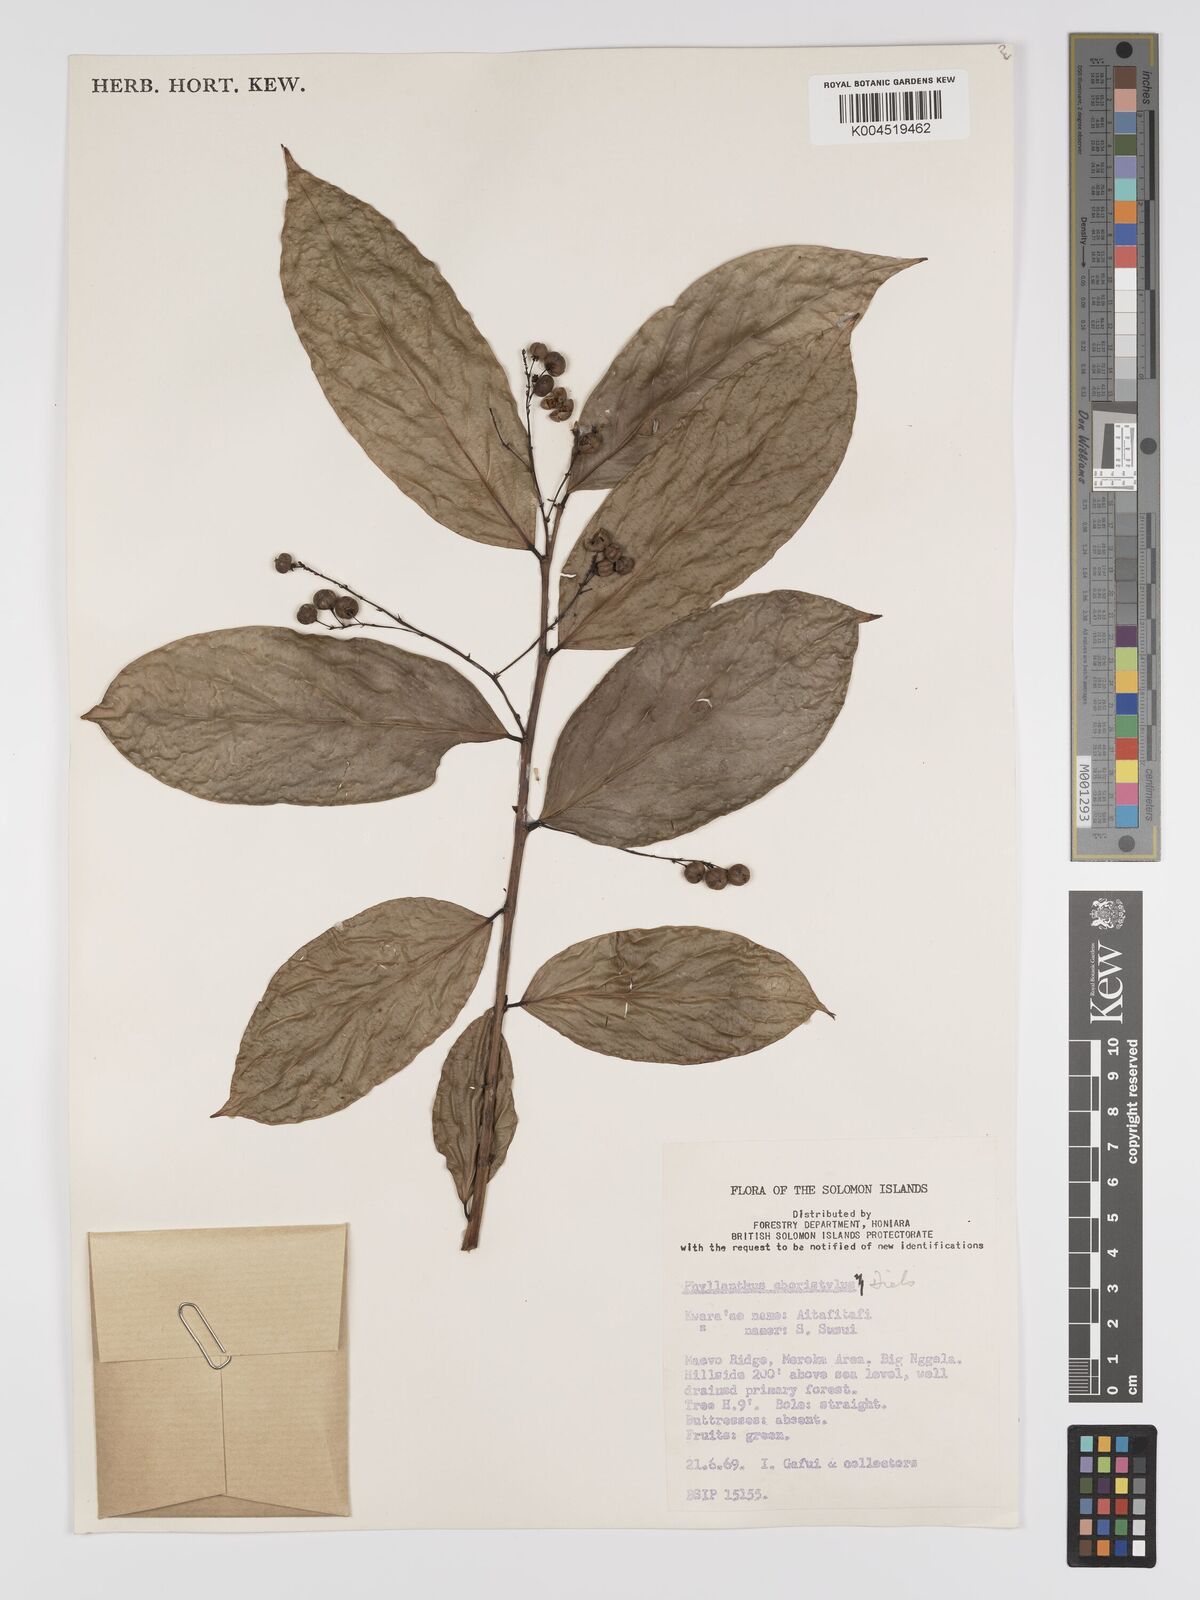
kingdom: Plantae
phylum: Tracheophyta
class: Magnoliopsida
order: Malpighiales
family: Phyllanthaceae
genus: Phyllanthus
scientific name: Phyllanthus clamboides
